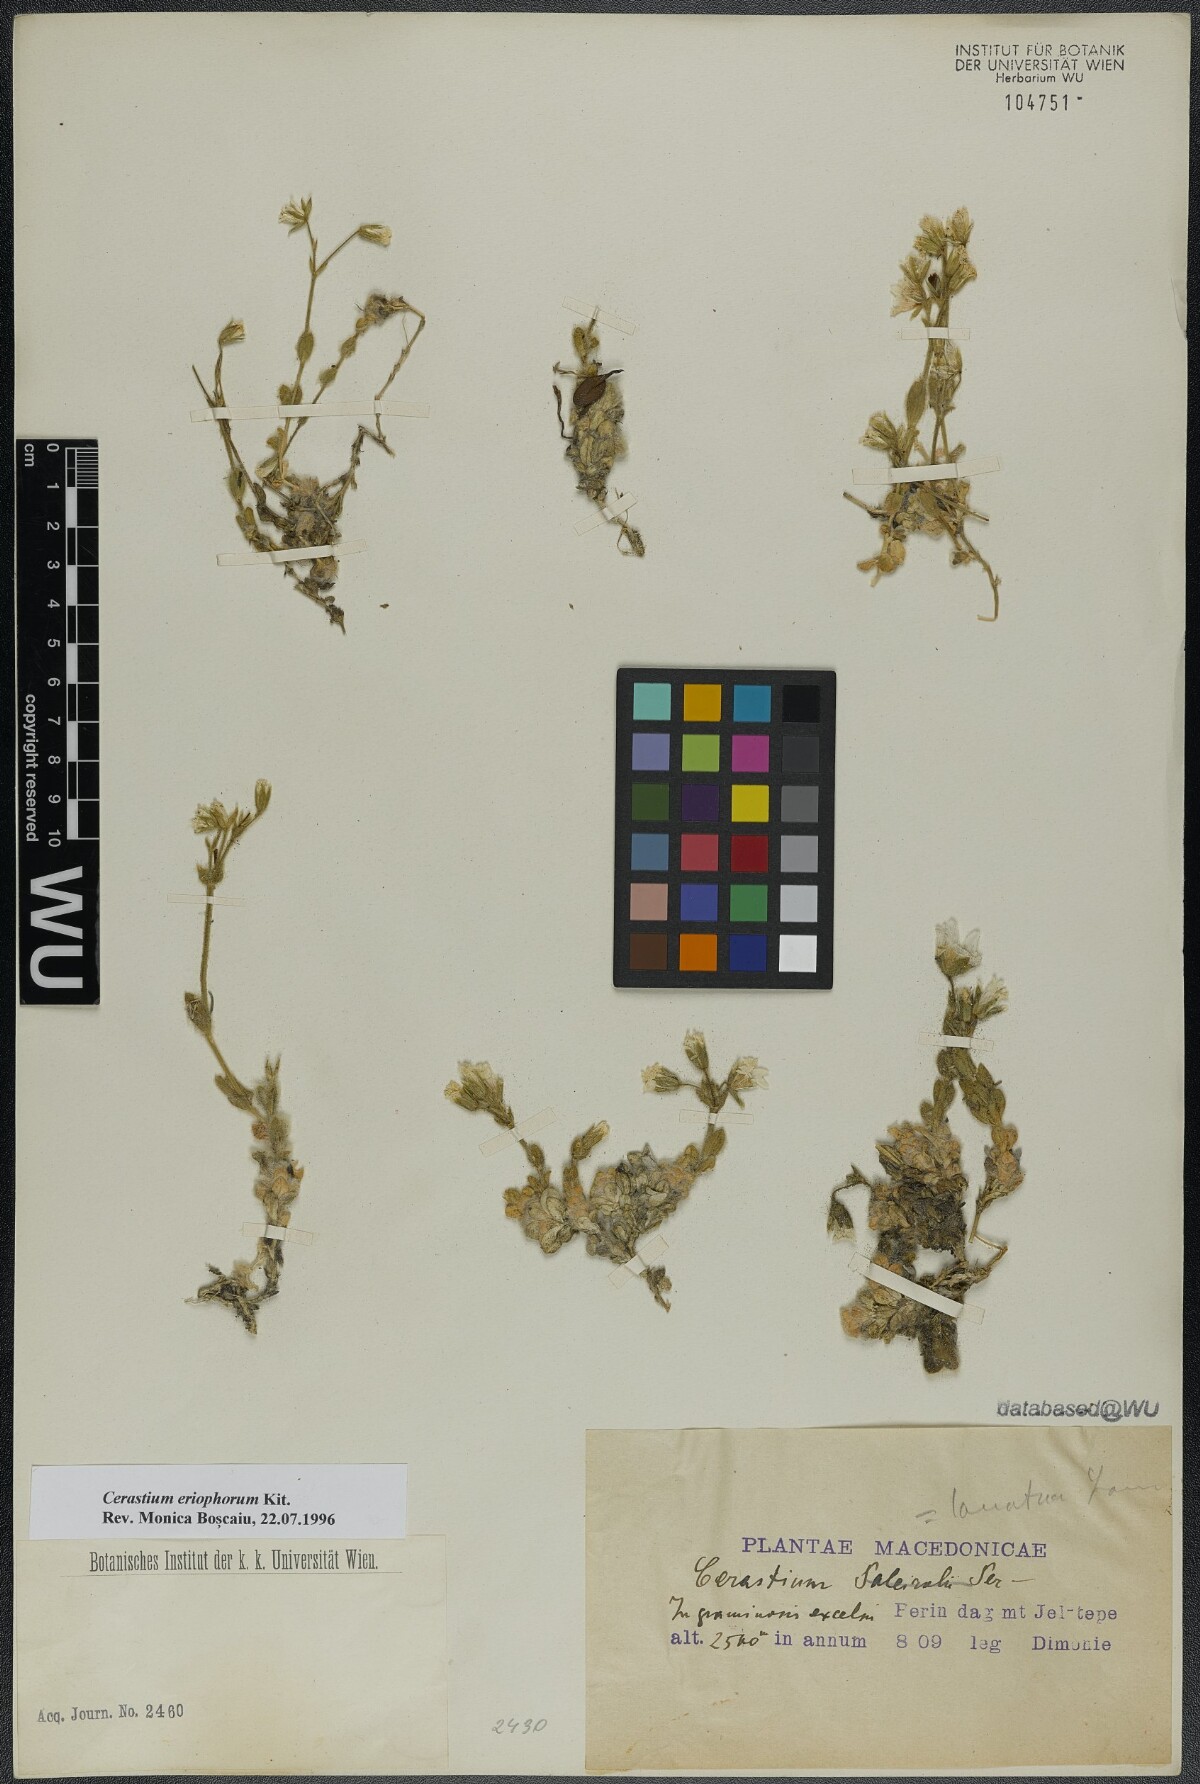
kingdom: Plantae
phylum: Tracheophyta
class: Magnoliopsida
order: Caryophyllales
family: Caryophyllaceae
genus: Cerastium
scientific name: Cerastium eriophorum
